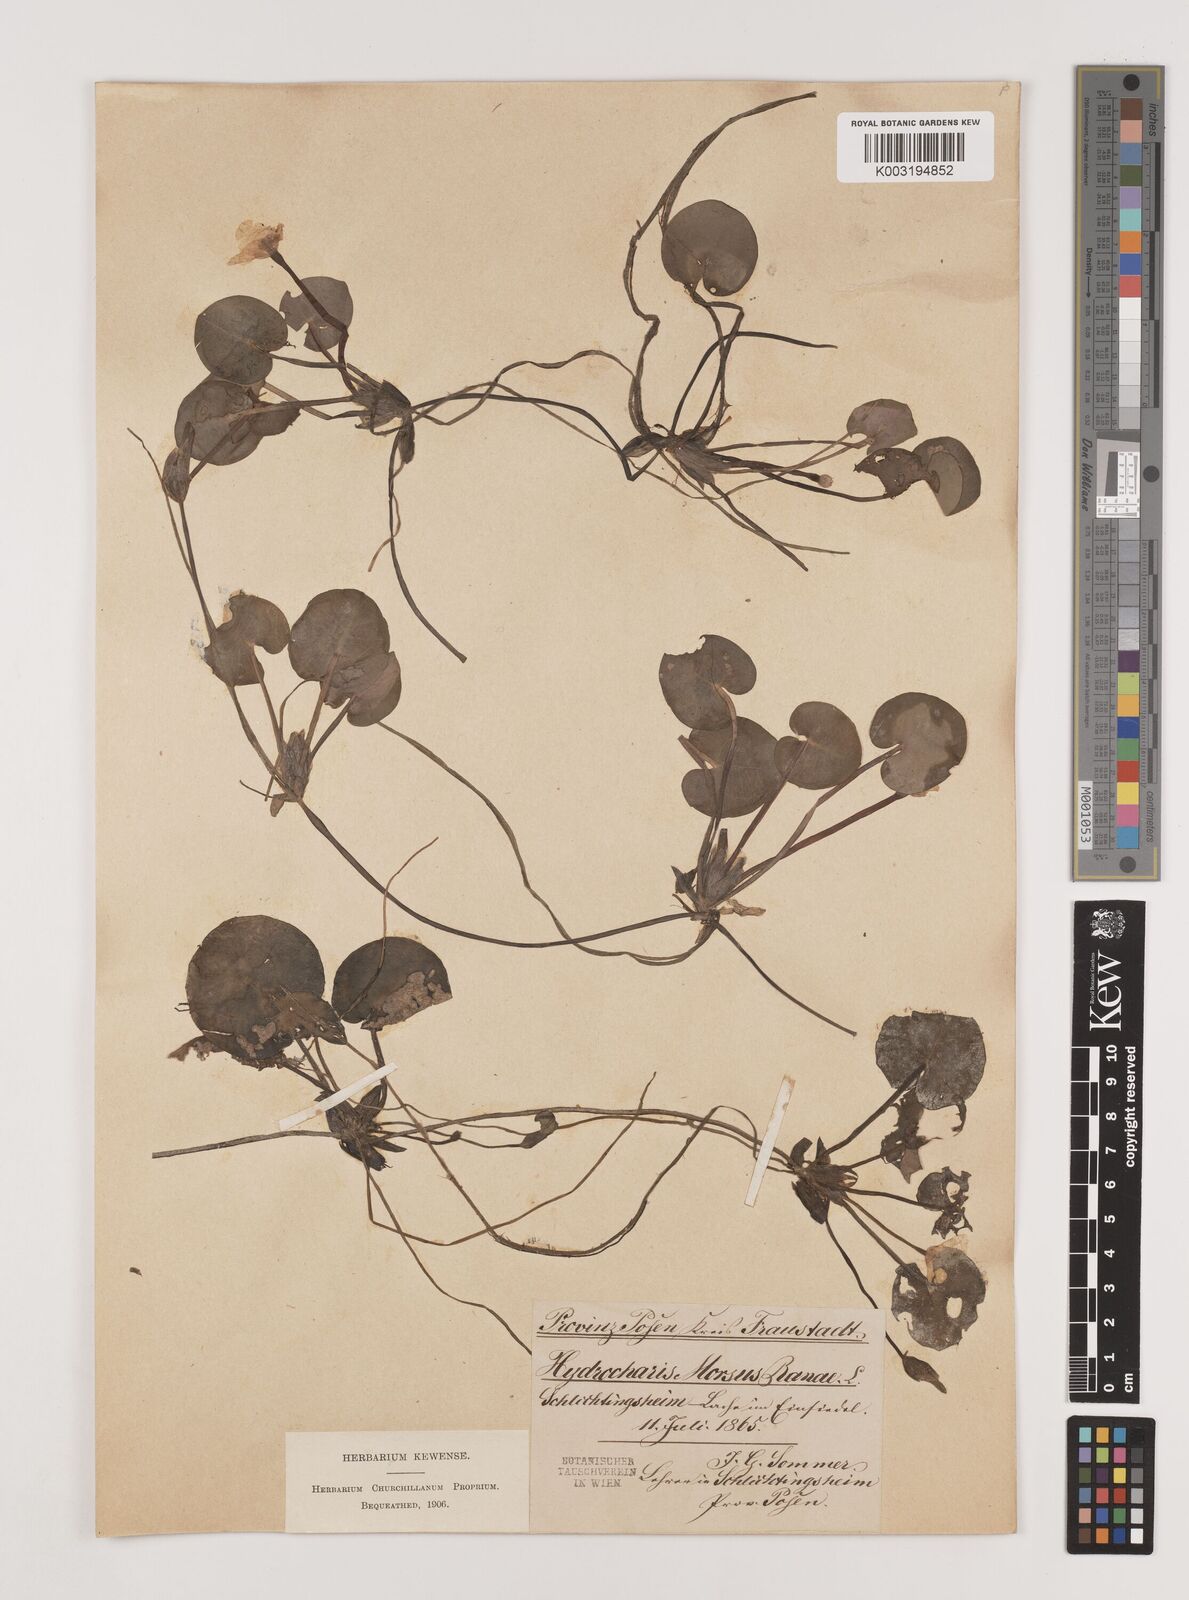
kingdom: Plantae
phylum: Tracheophyta
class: Liliopsida
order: Alismatales
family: Hydrocharitaceae
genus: Hydrocharis
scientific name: Hydrocharis morsus-ranae
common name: Frogbit
